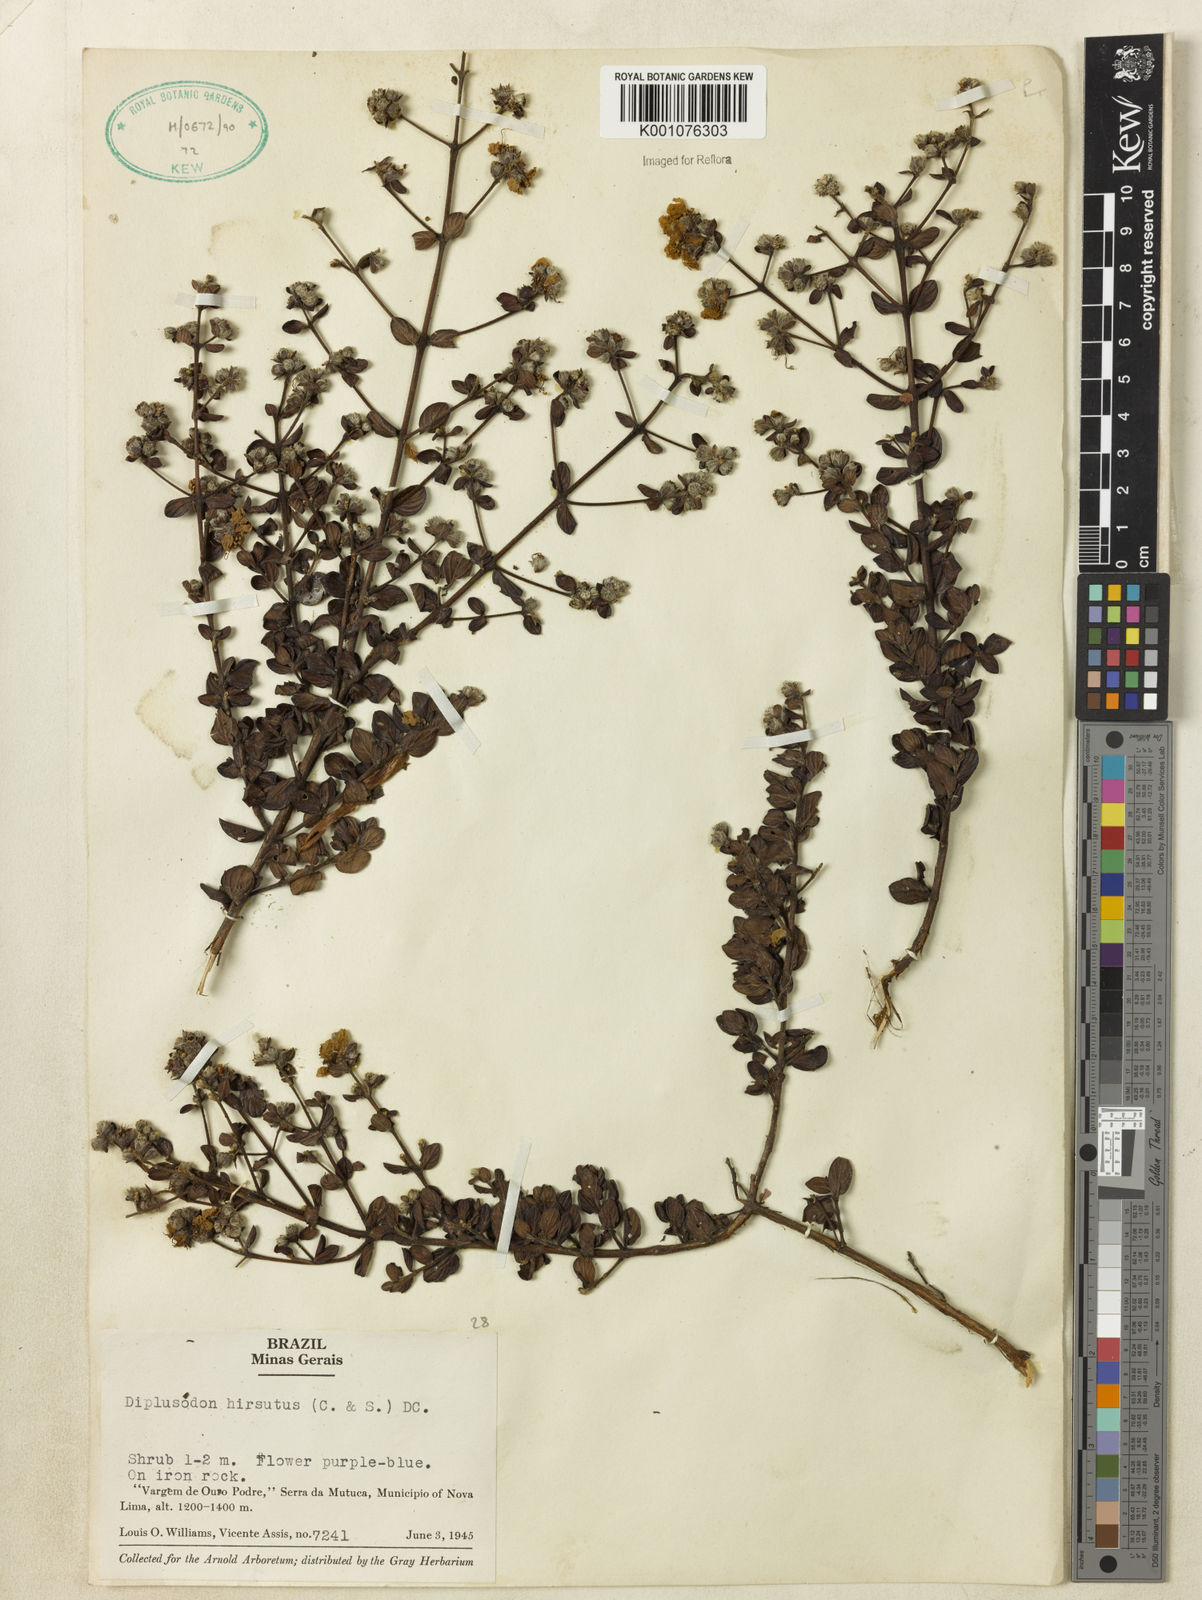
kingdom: Plantae
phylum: Tracheophyta
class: Magnoliopsida
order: Myrtales
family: Lythraceae
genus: Diplusodon
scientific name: Diplusodon hirsutus
